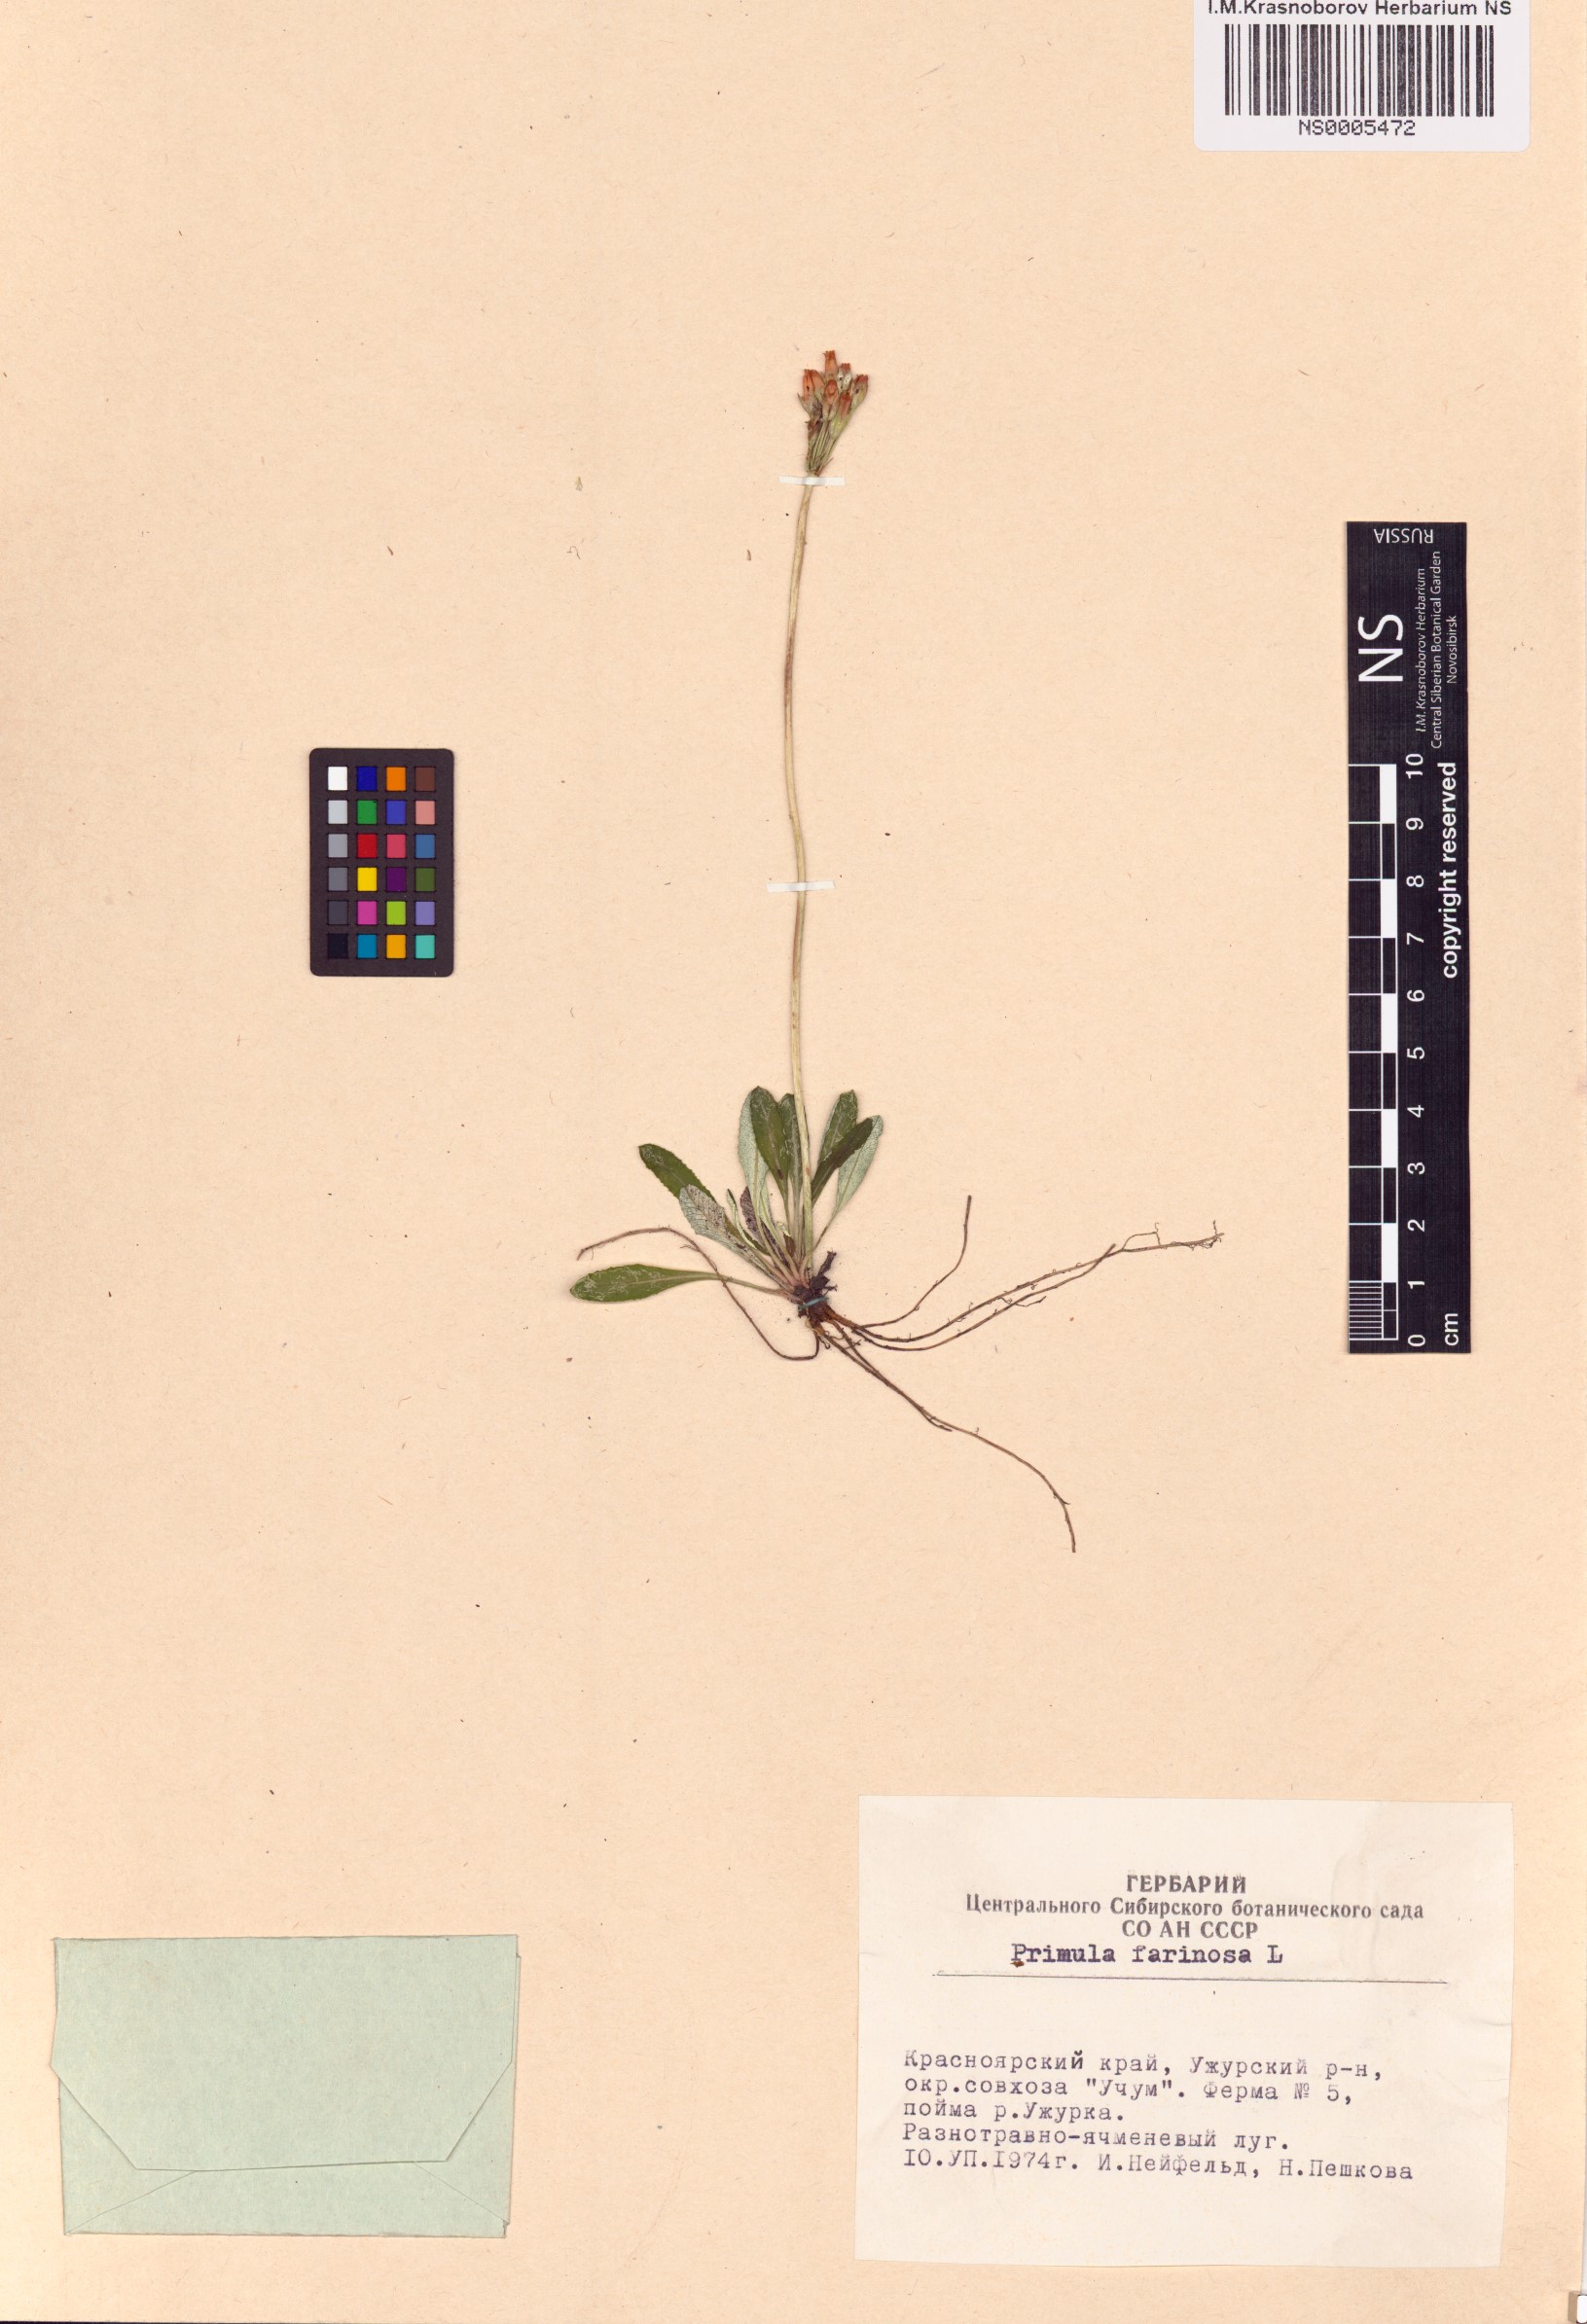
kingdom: Plantae
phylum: Tracheophyta
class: Magnoliopsida
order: Ericales
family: Primulaceae
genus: Primula
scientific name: Primula farinosa
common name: Bird's-eye primrose
